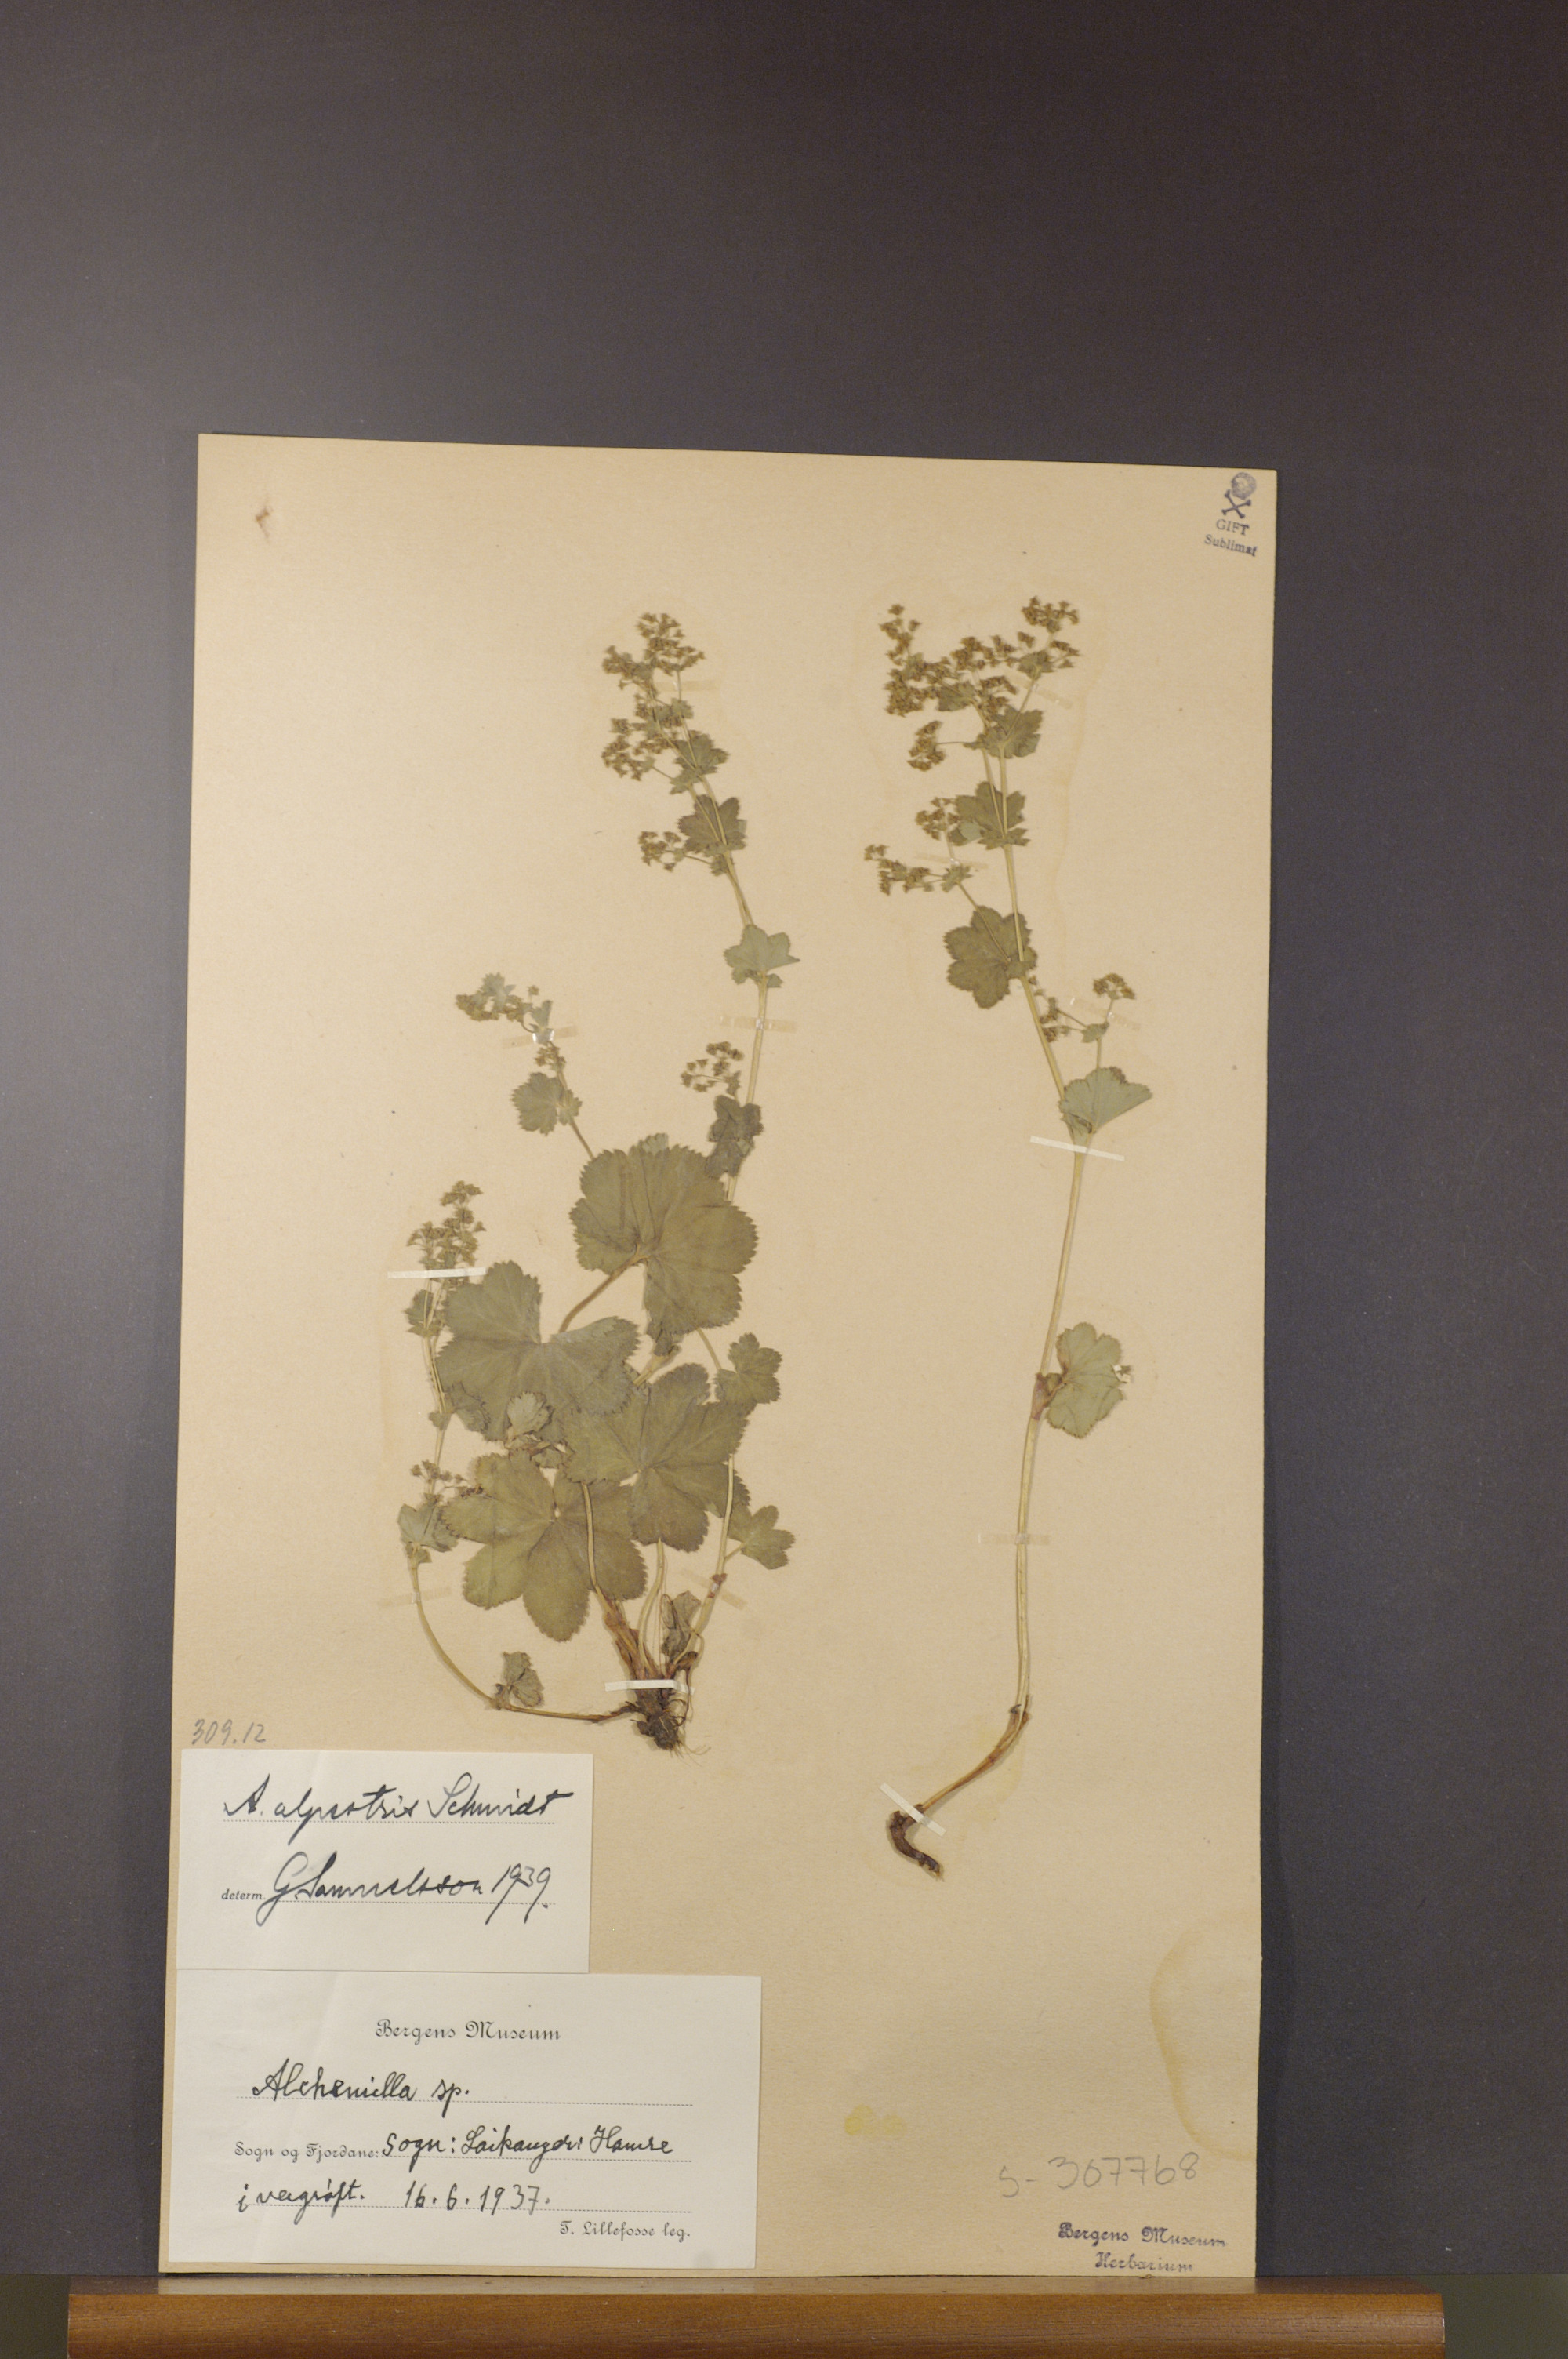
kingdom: Plantae
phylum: Tracheophyta
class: Magnoliopsida
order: Rosales
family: Rosaceae
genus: Alchemilla
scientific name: Alchemilla glabra
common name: Smooth lady's-mantle
